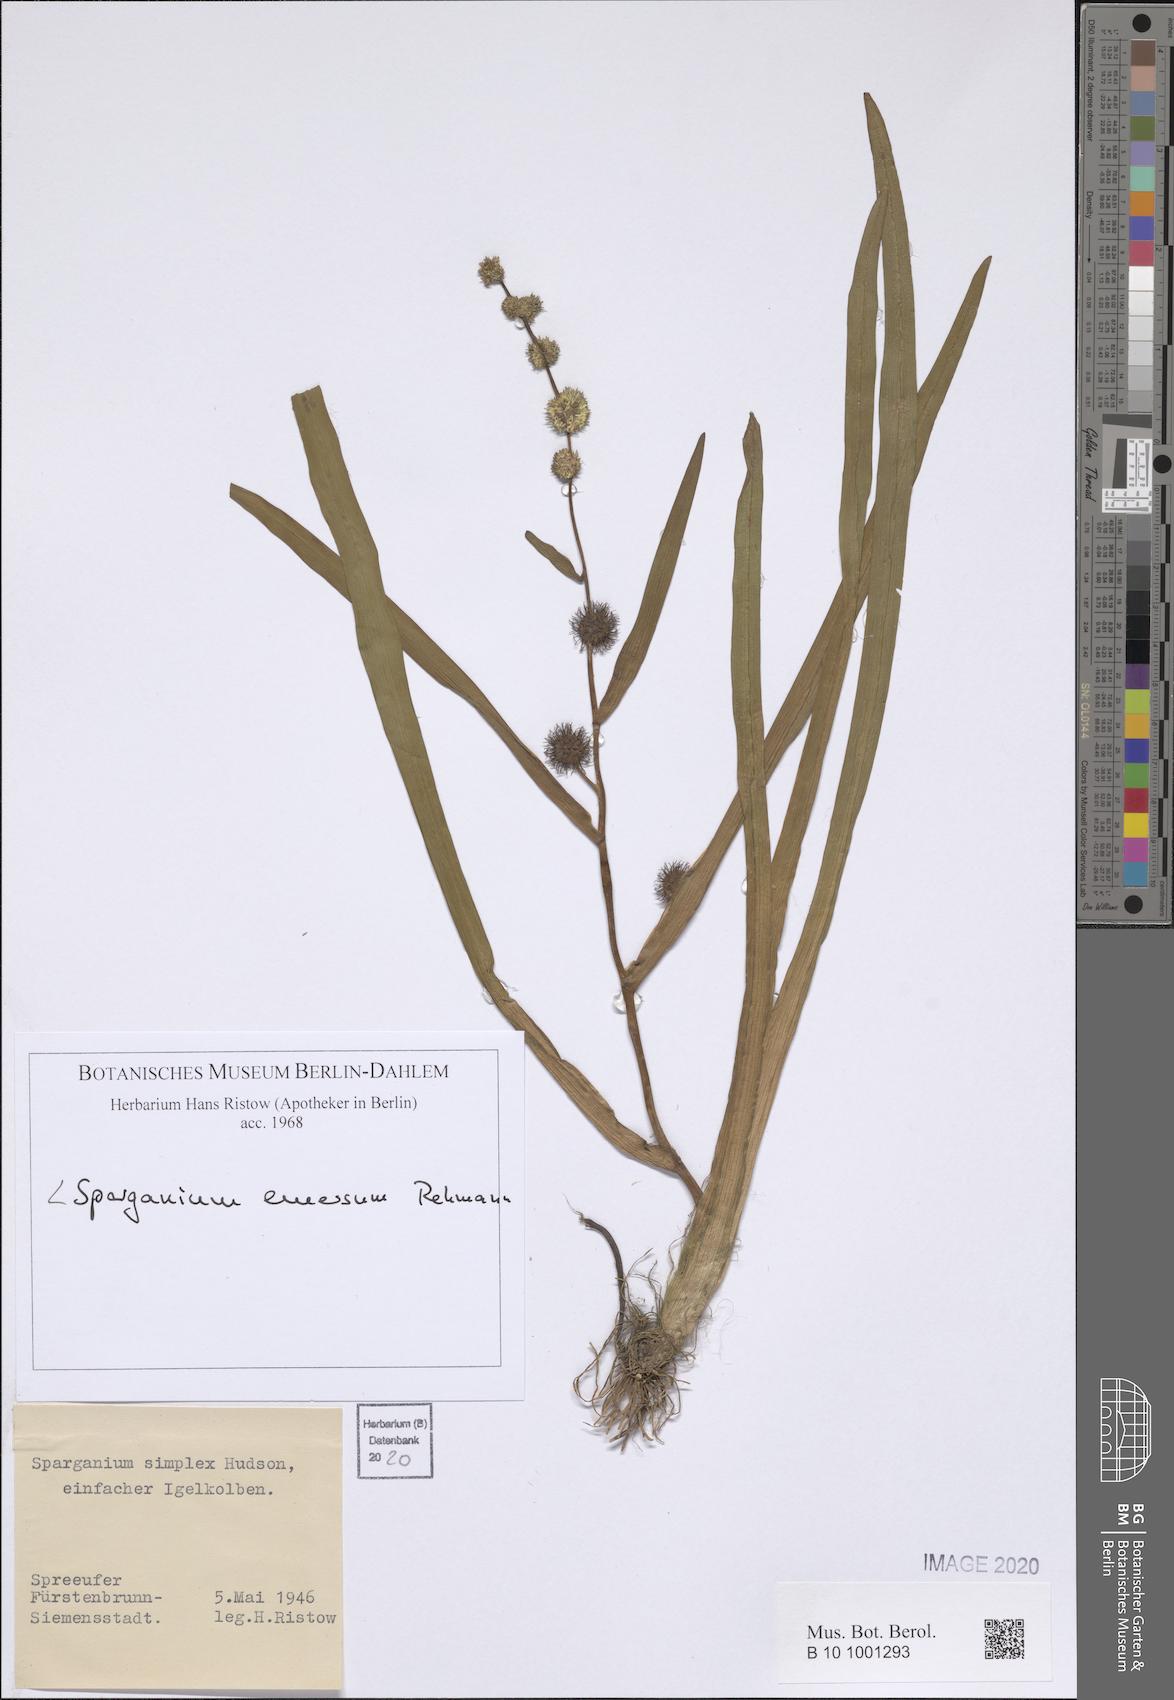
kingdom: Plantae
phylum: Tracheophyta
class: Liliopsida
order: Poales
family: Typhaceae
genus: Sparganium
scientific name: Sparganium emersum
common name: Unbranched bur-reed
